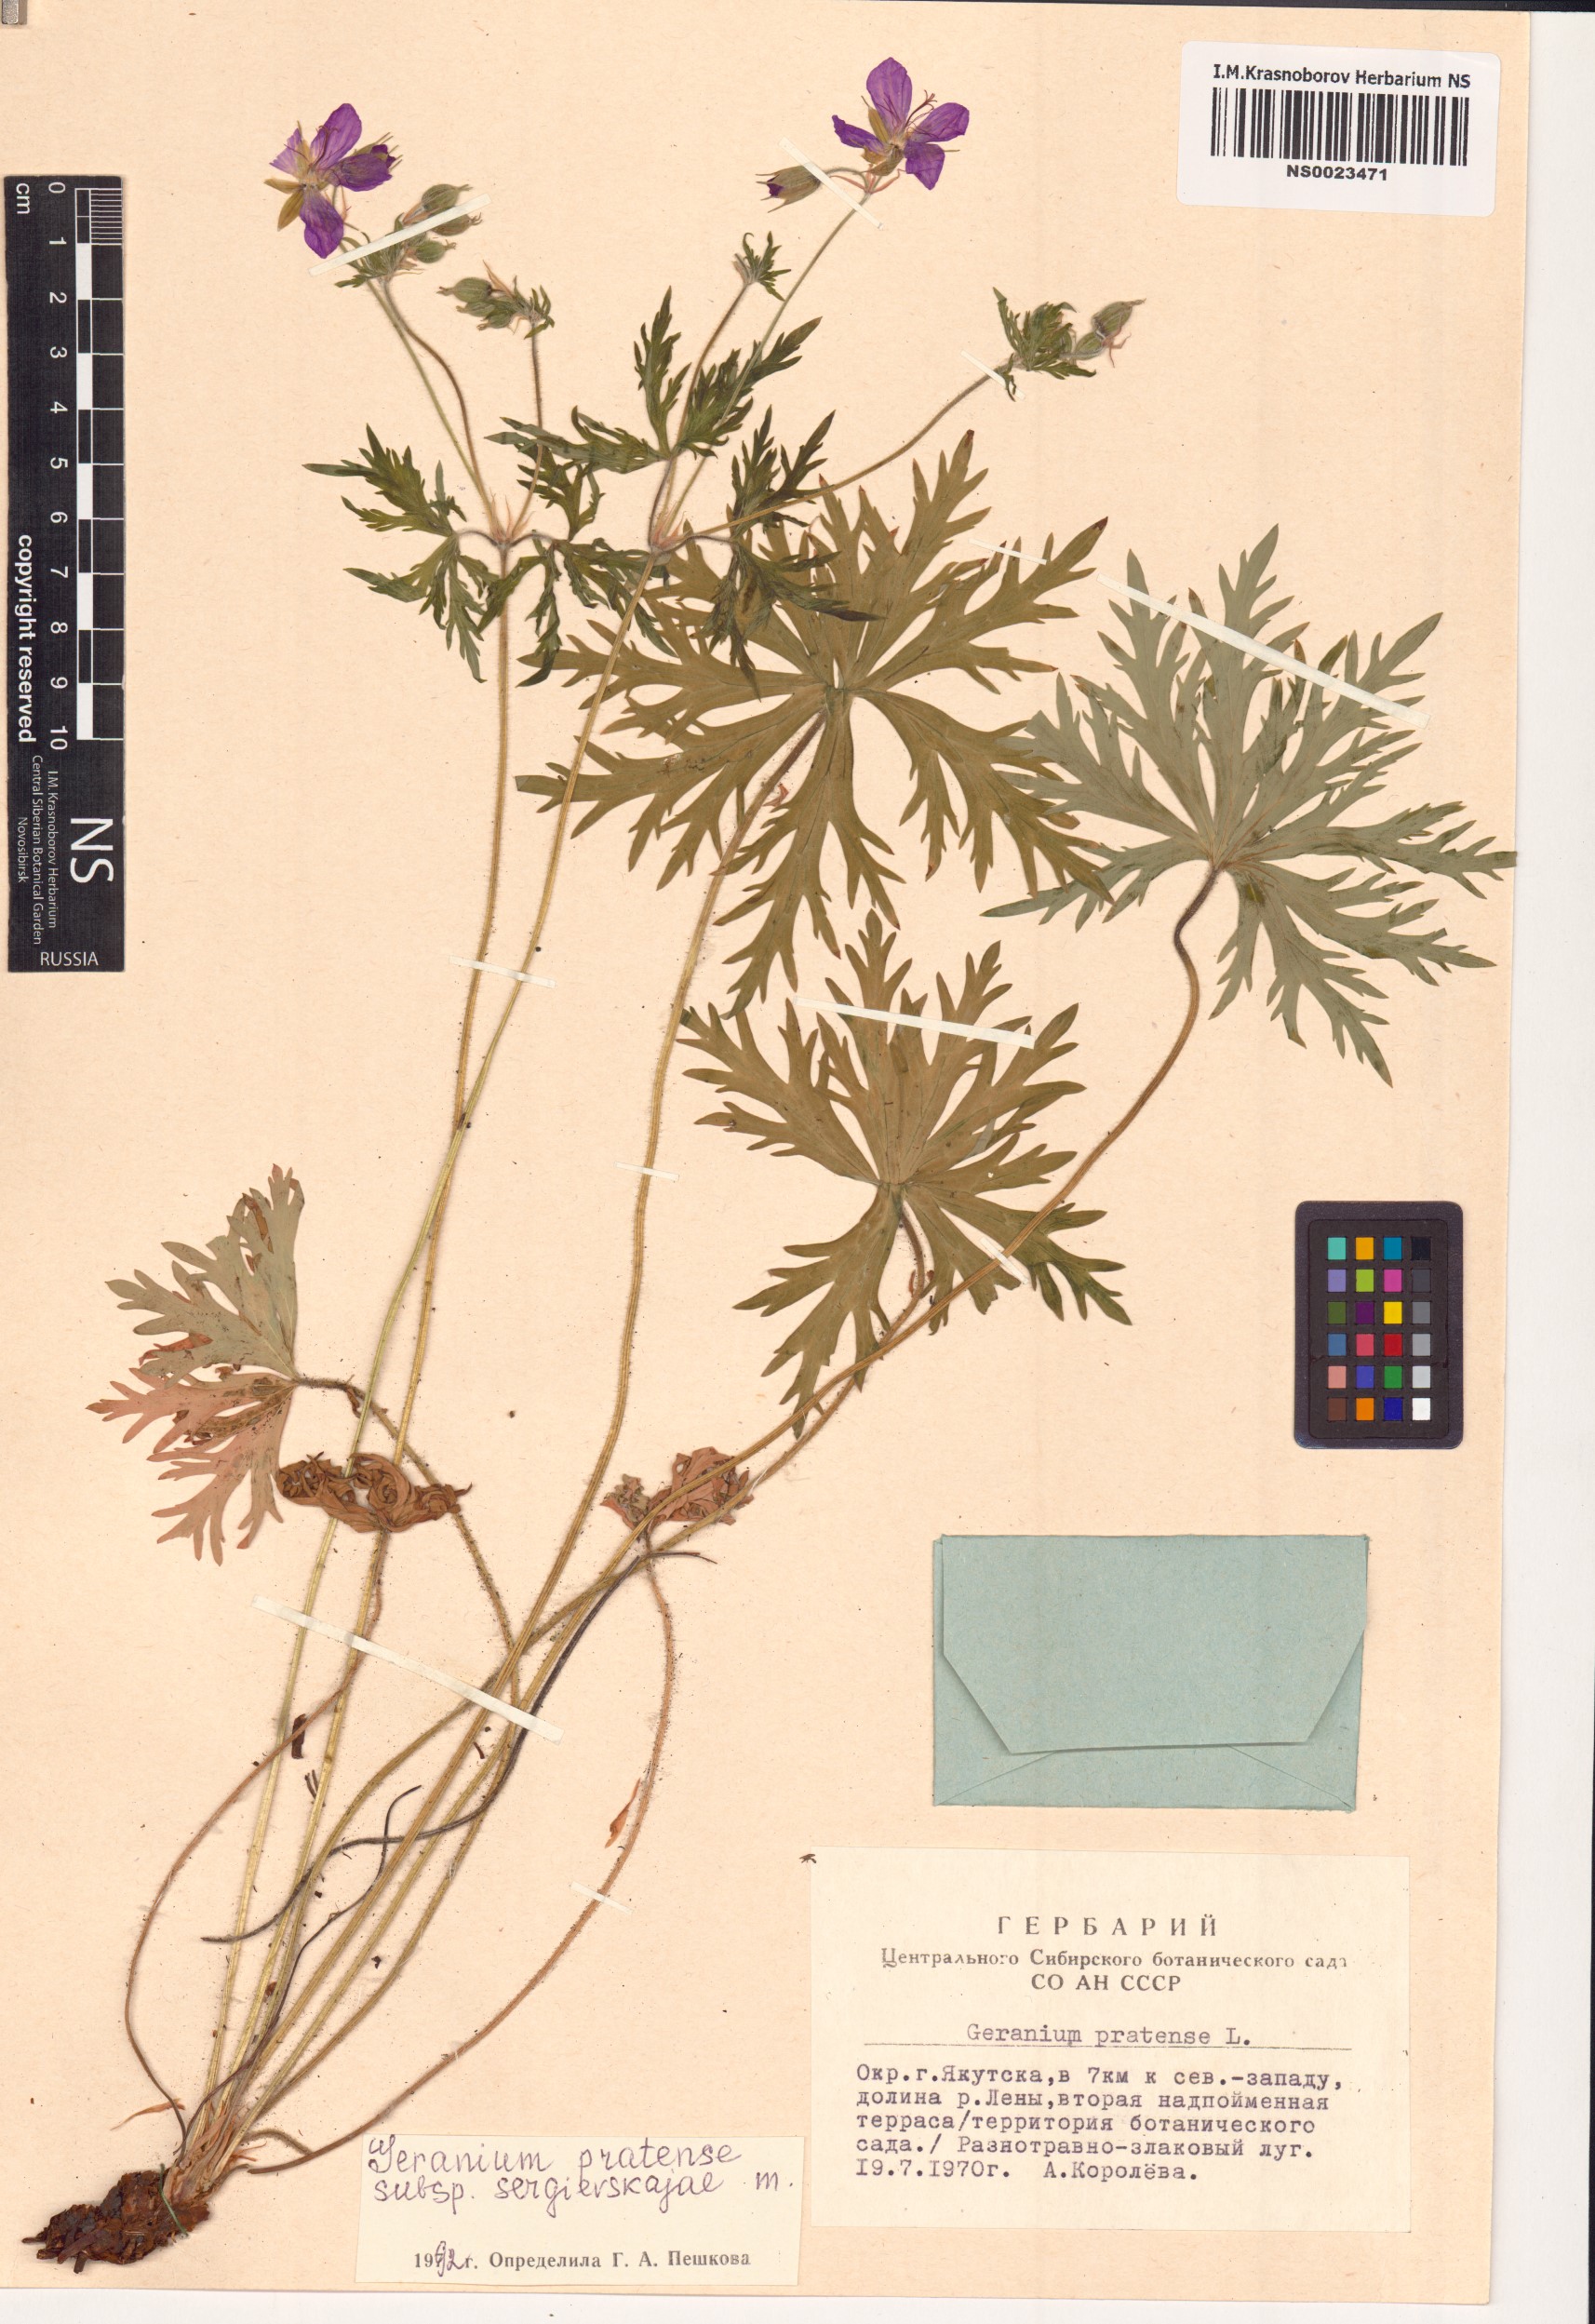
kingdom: Plantae
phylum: Tracheophyta
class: Magnoliopsida
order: Geraniales
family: Geraniaceae
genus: Geranium
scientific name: Geranium pratense
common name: Meadow crane's-bill
